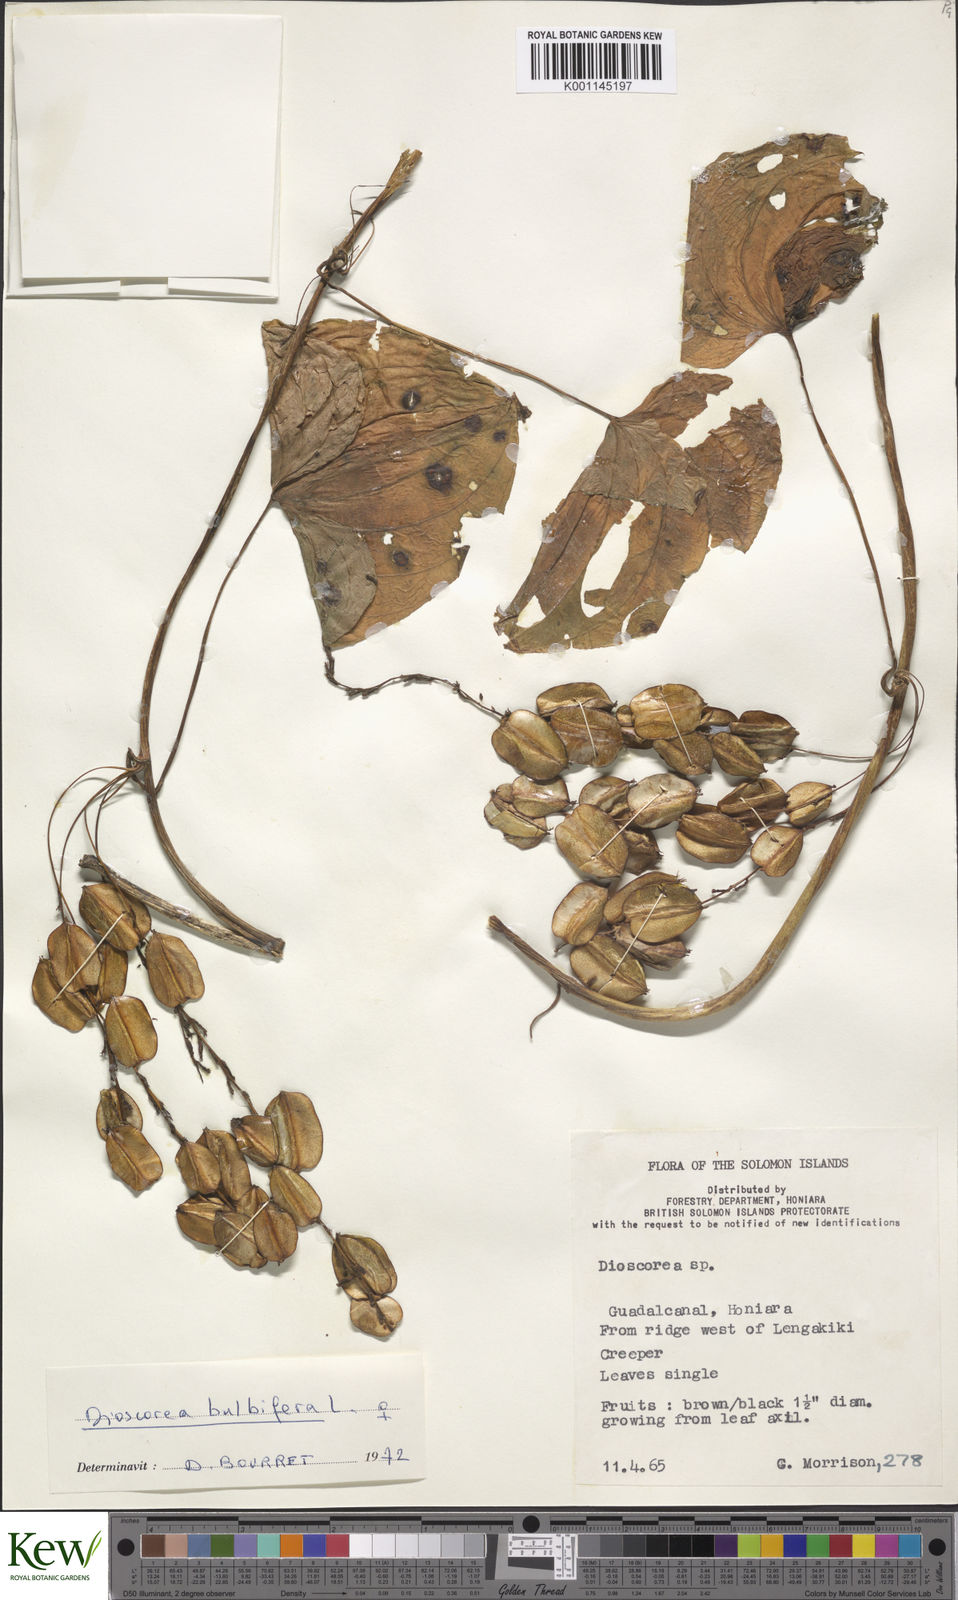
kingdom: Plantae
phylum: Tracheophyta
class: Liliopsida
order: Dioscoreales
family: Dioscoreaceae
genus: Dioscorea
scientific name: Dioscorea bulbifera
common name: Air yam
